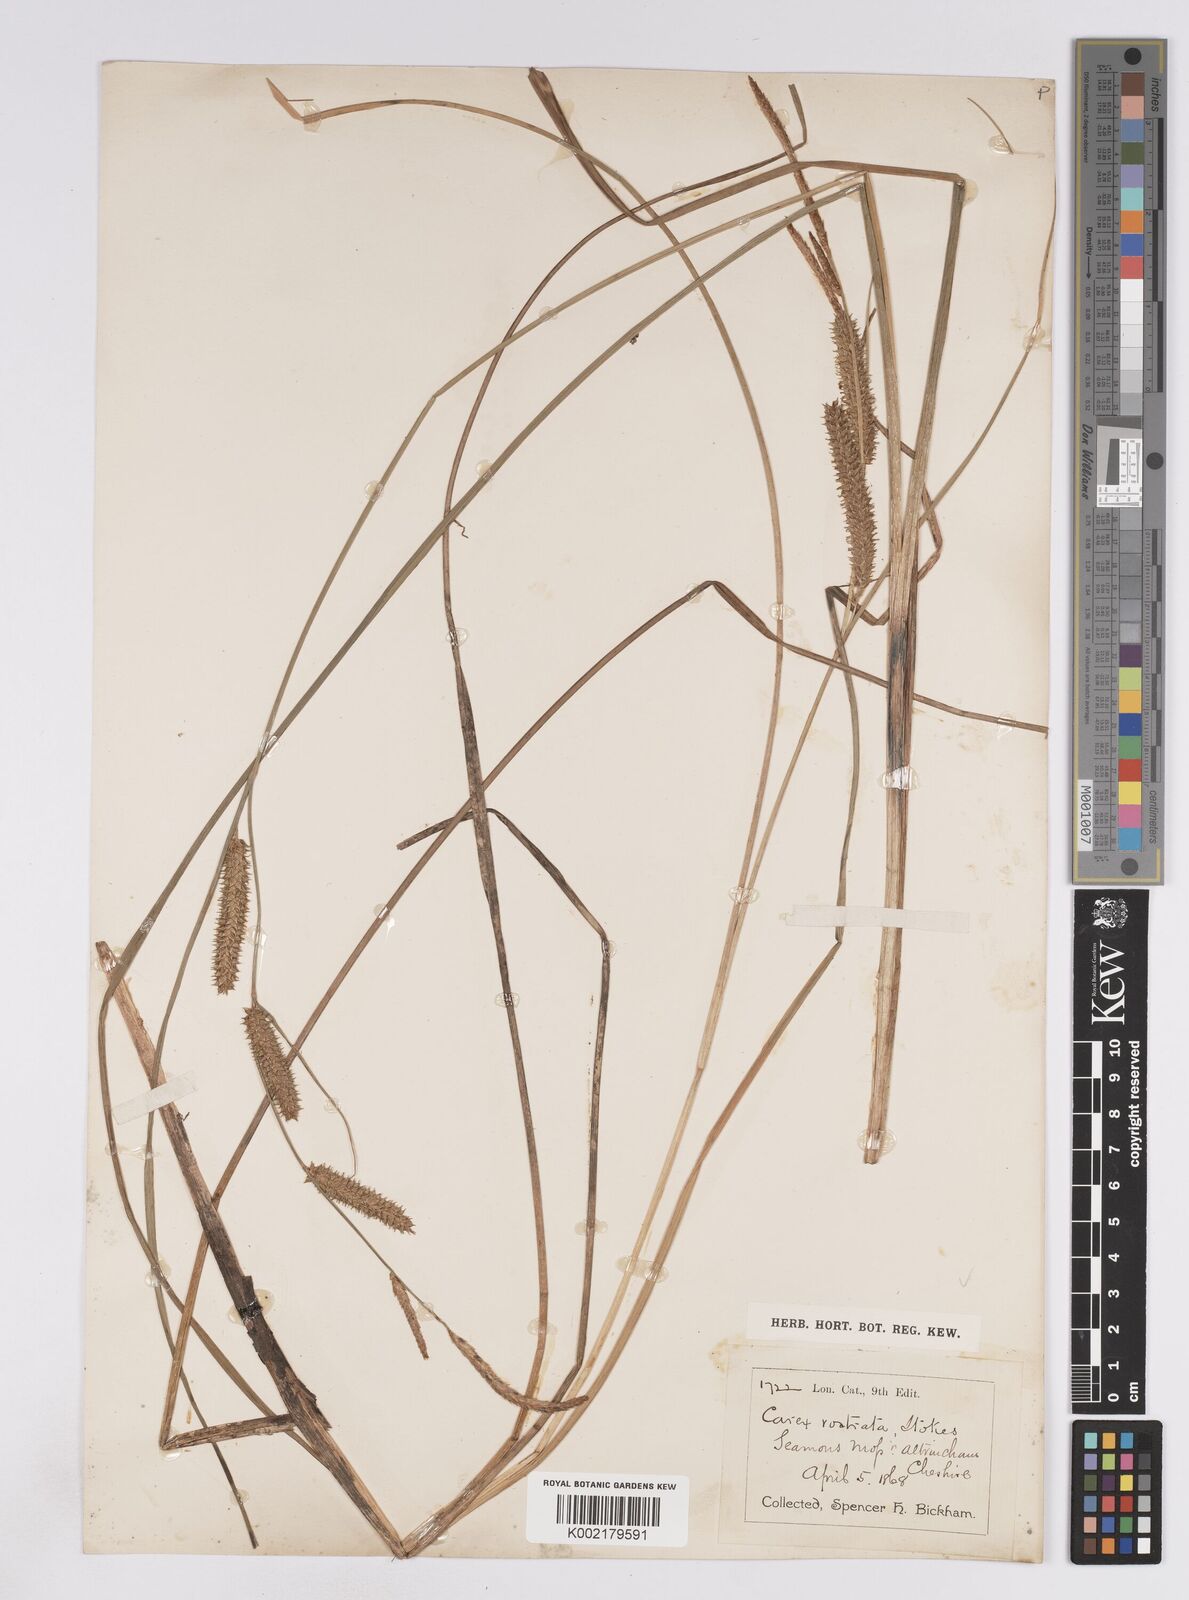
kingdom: Plantae
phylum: Tracheophyta
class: Liliopsida
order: Poales
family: Cyperaceae
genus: Carex
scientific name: Carex rostrata
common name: Bottle sedge
